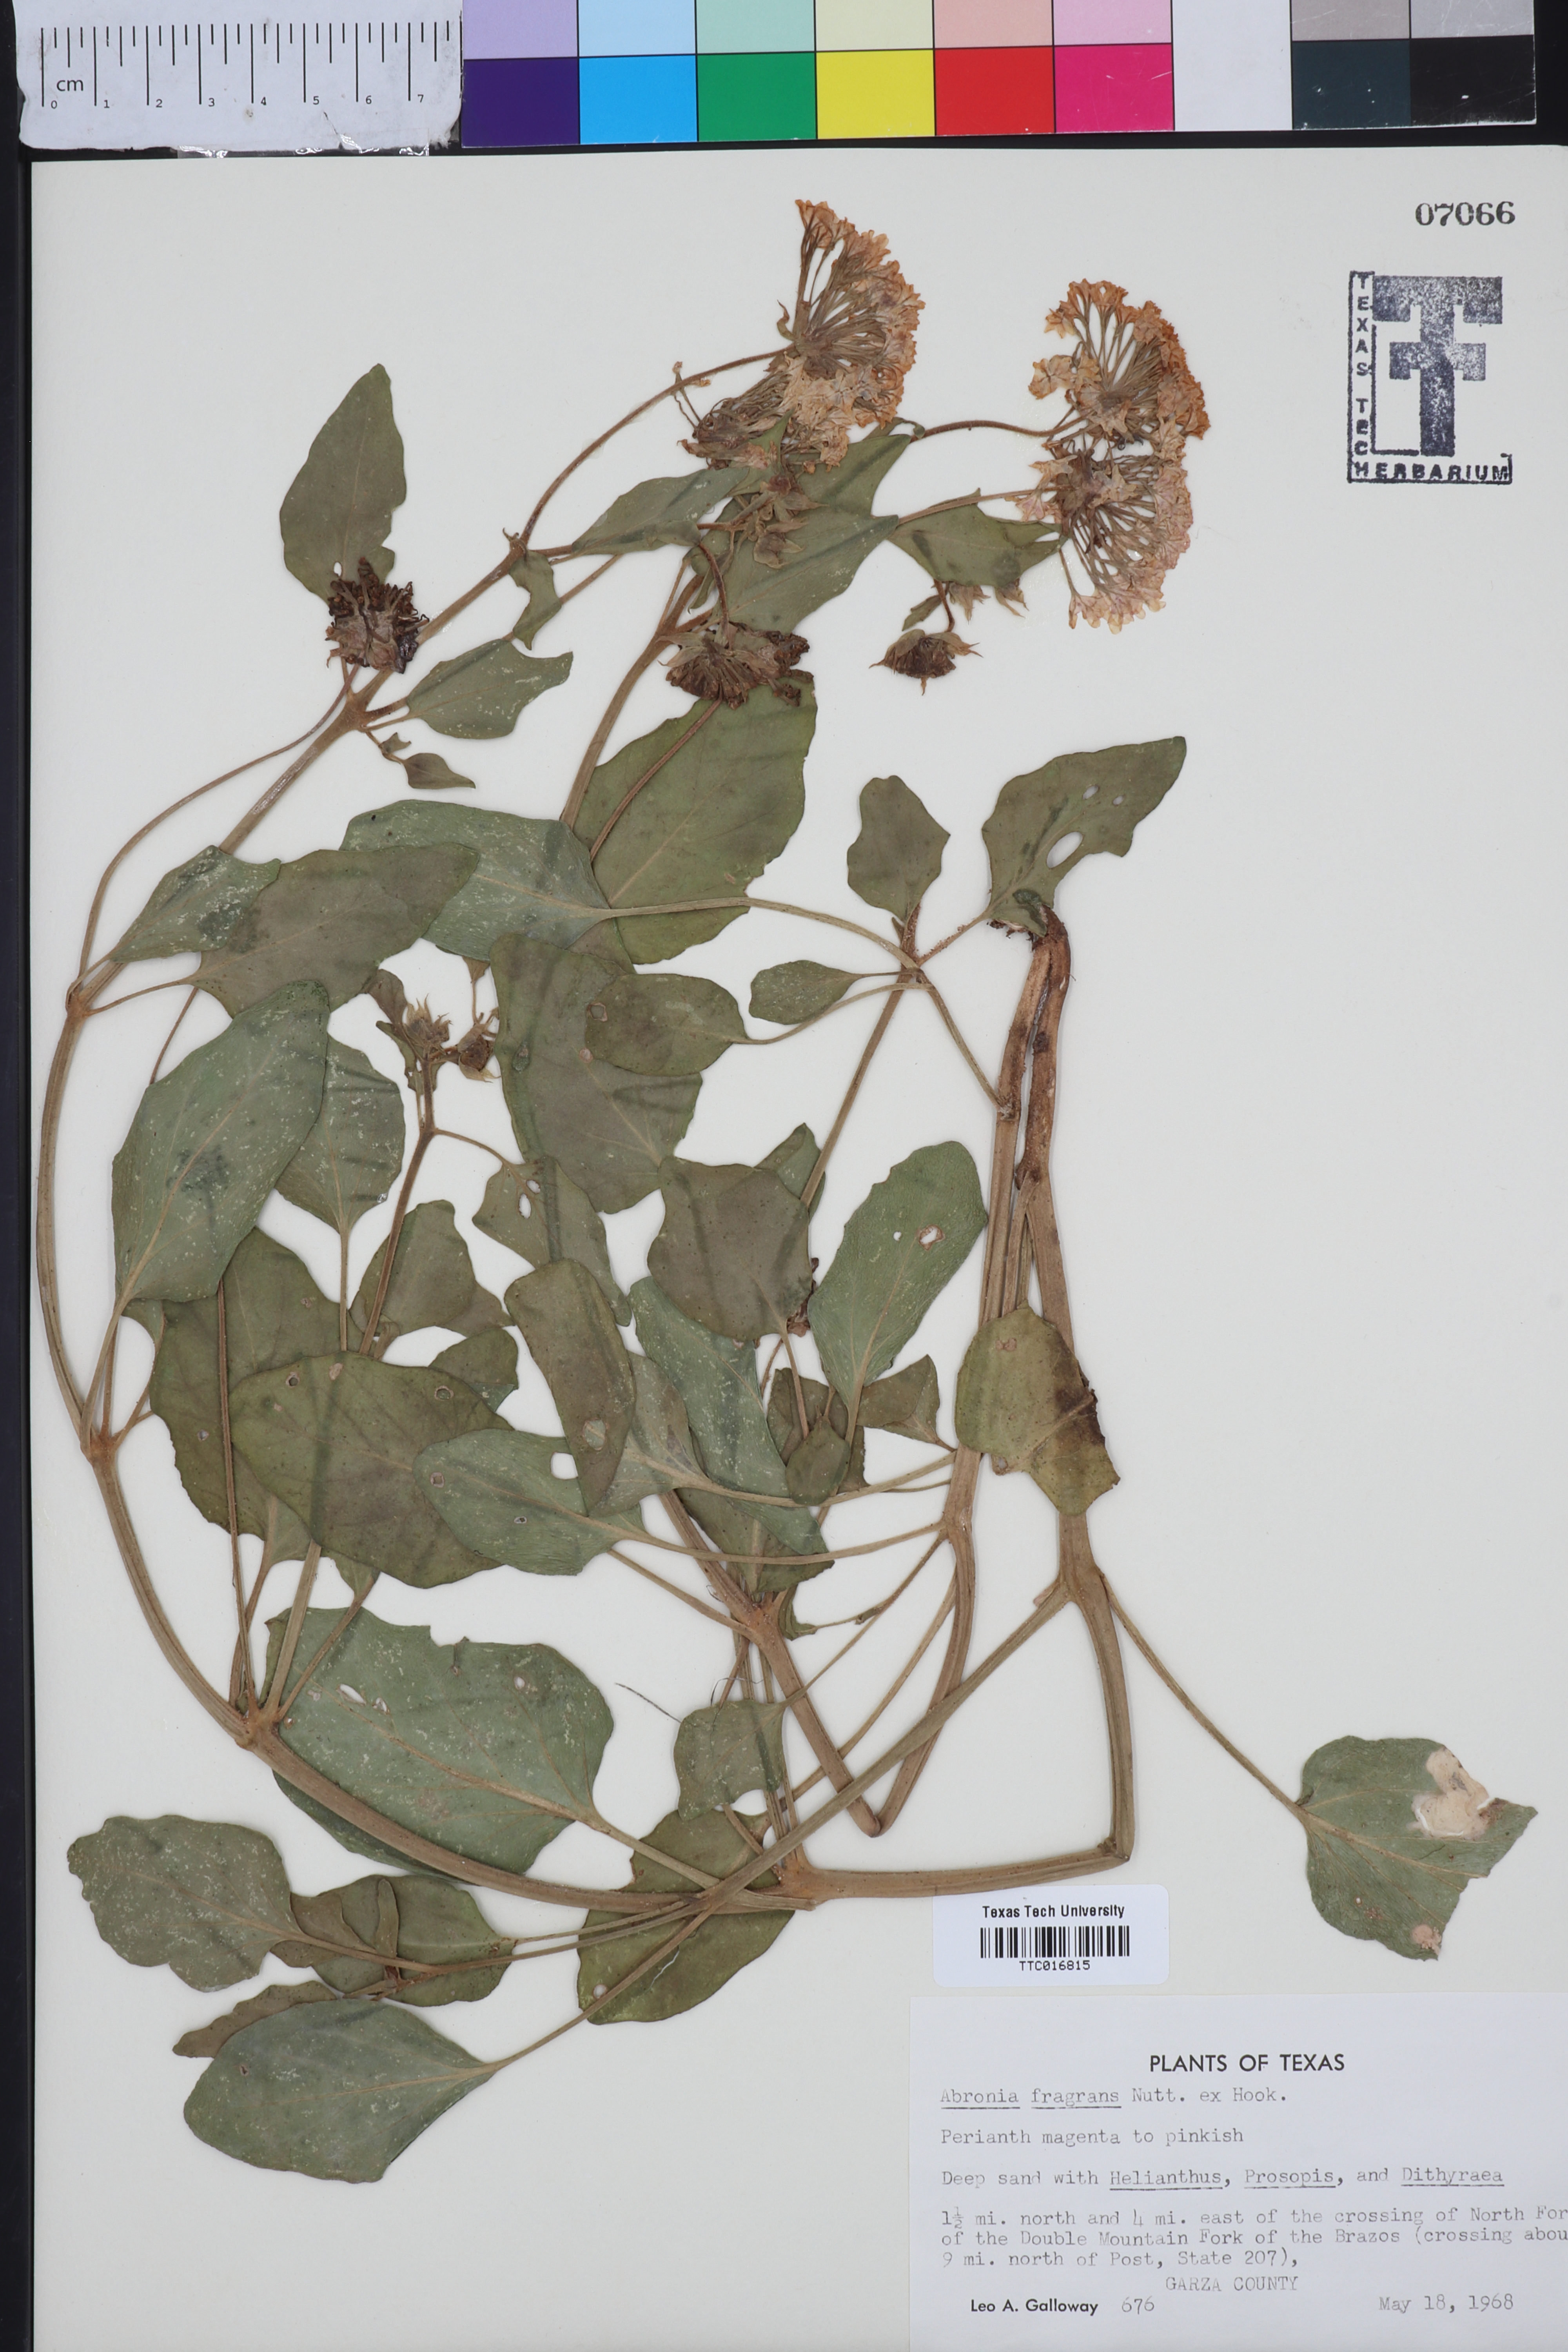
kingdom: Plantae
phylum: Tracheophyta
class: Magnoliopsida
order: Caryophyllales
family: Nyctaginaceae
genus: Abronia
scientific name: Abronia fragrans
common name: Fragrant sand-verbena
